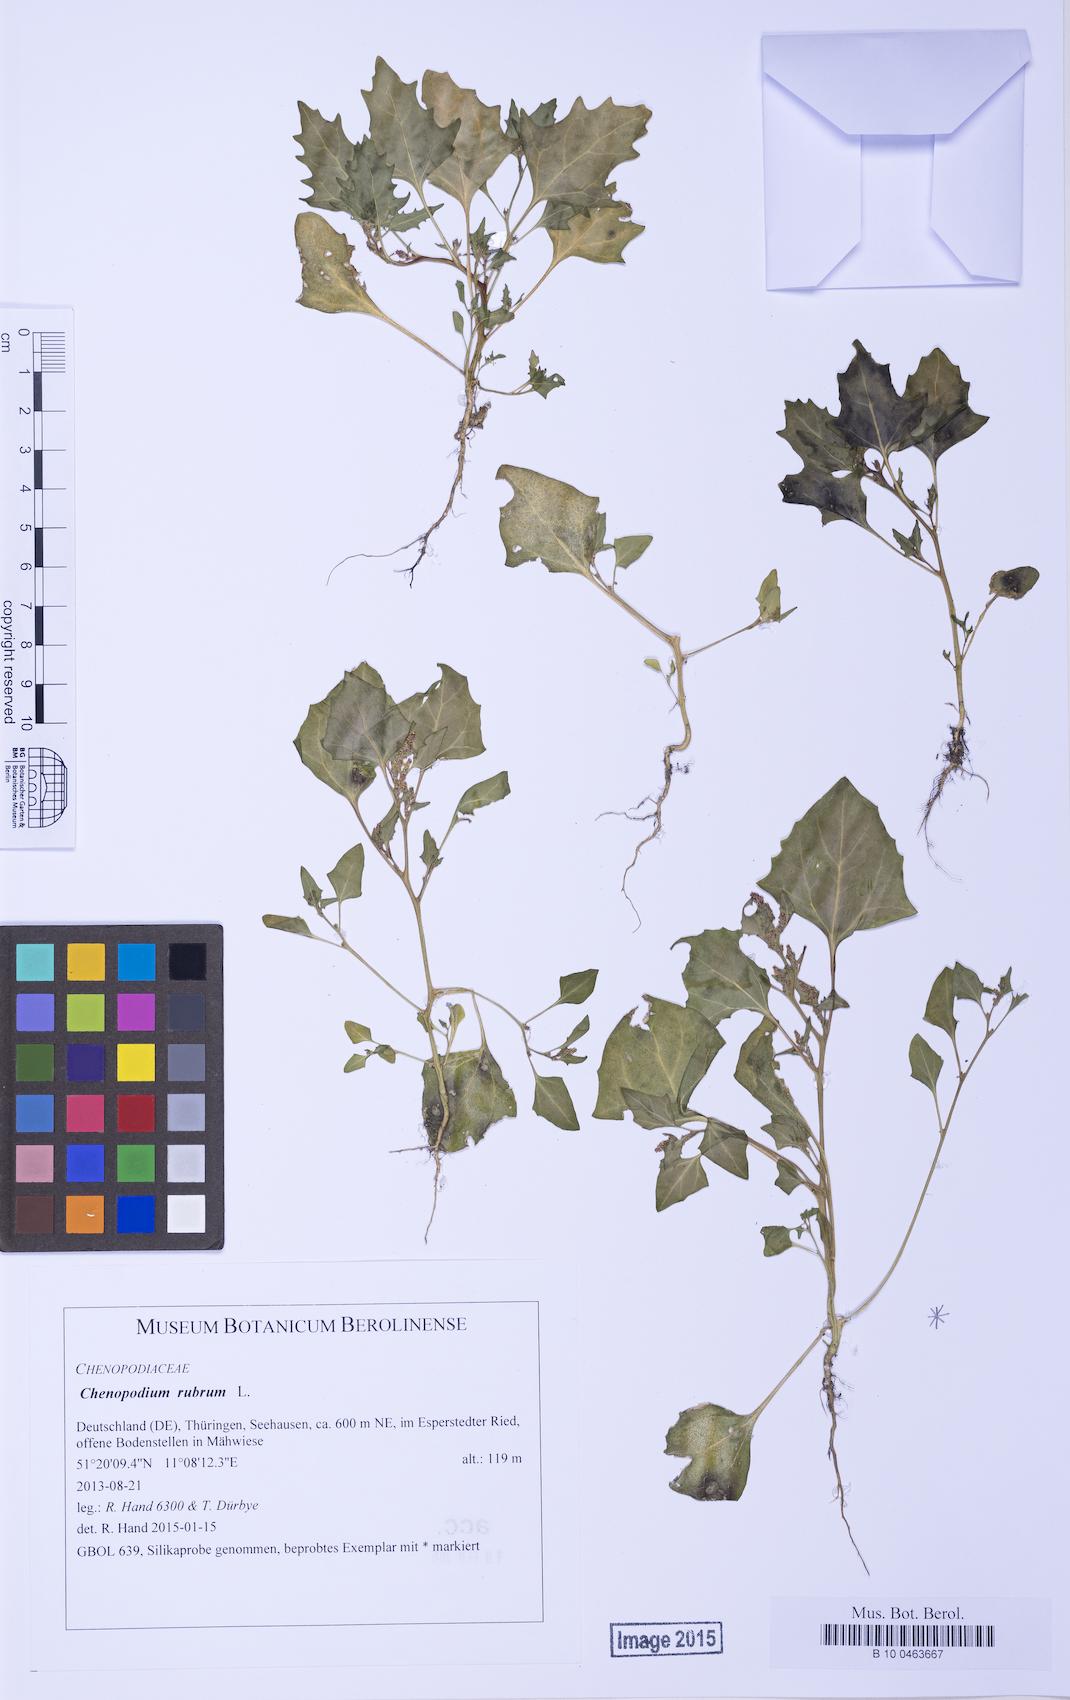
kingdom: Plantae
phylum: Tracheophyta
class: Magnoliopsida
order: Caryophyllales
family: Amaranthaceae
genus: Oxybasis
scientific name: Oxybasis rubra
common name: Red goosefoot
